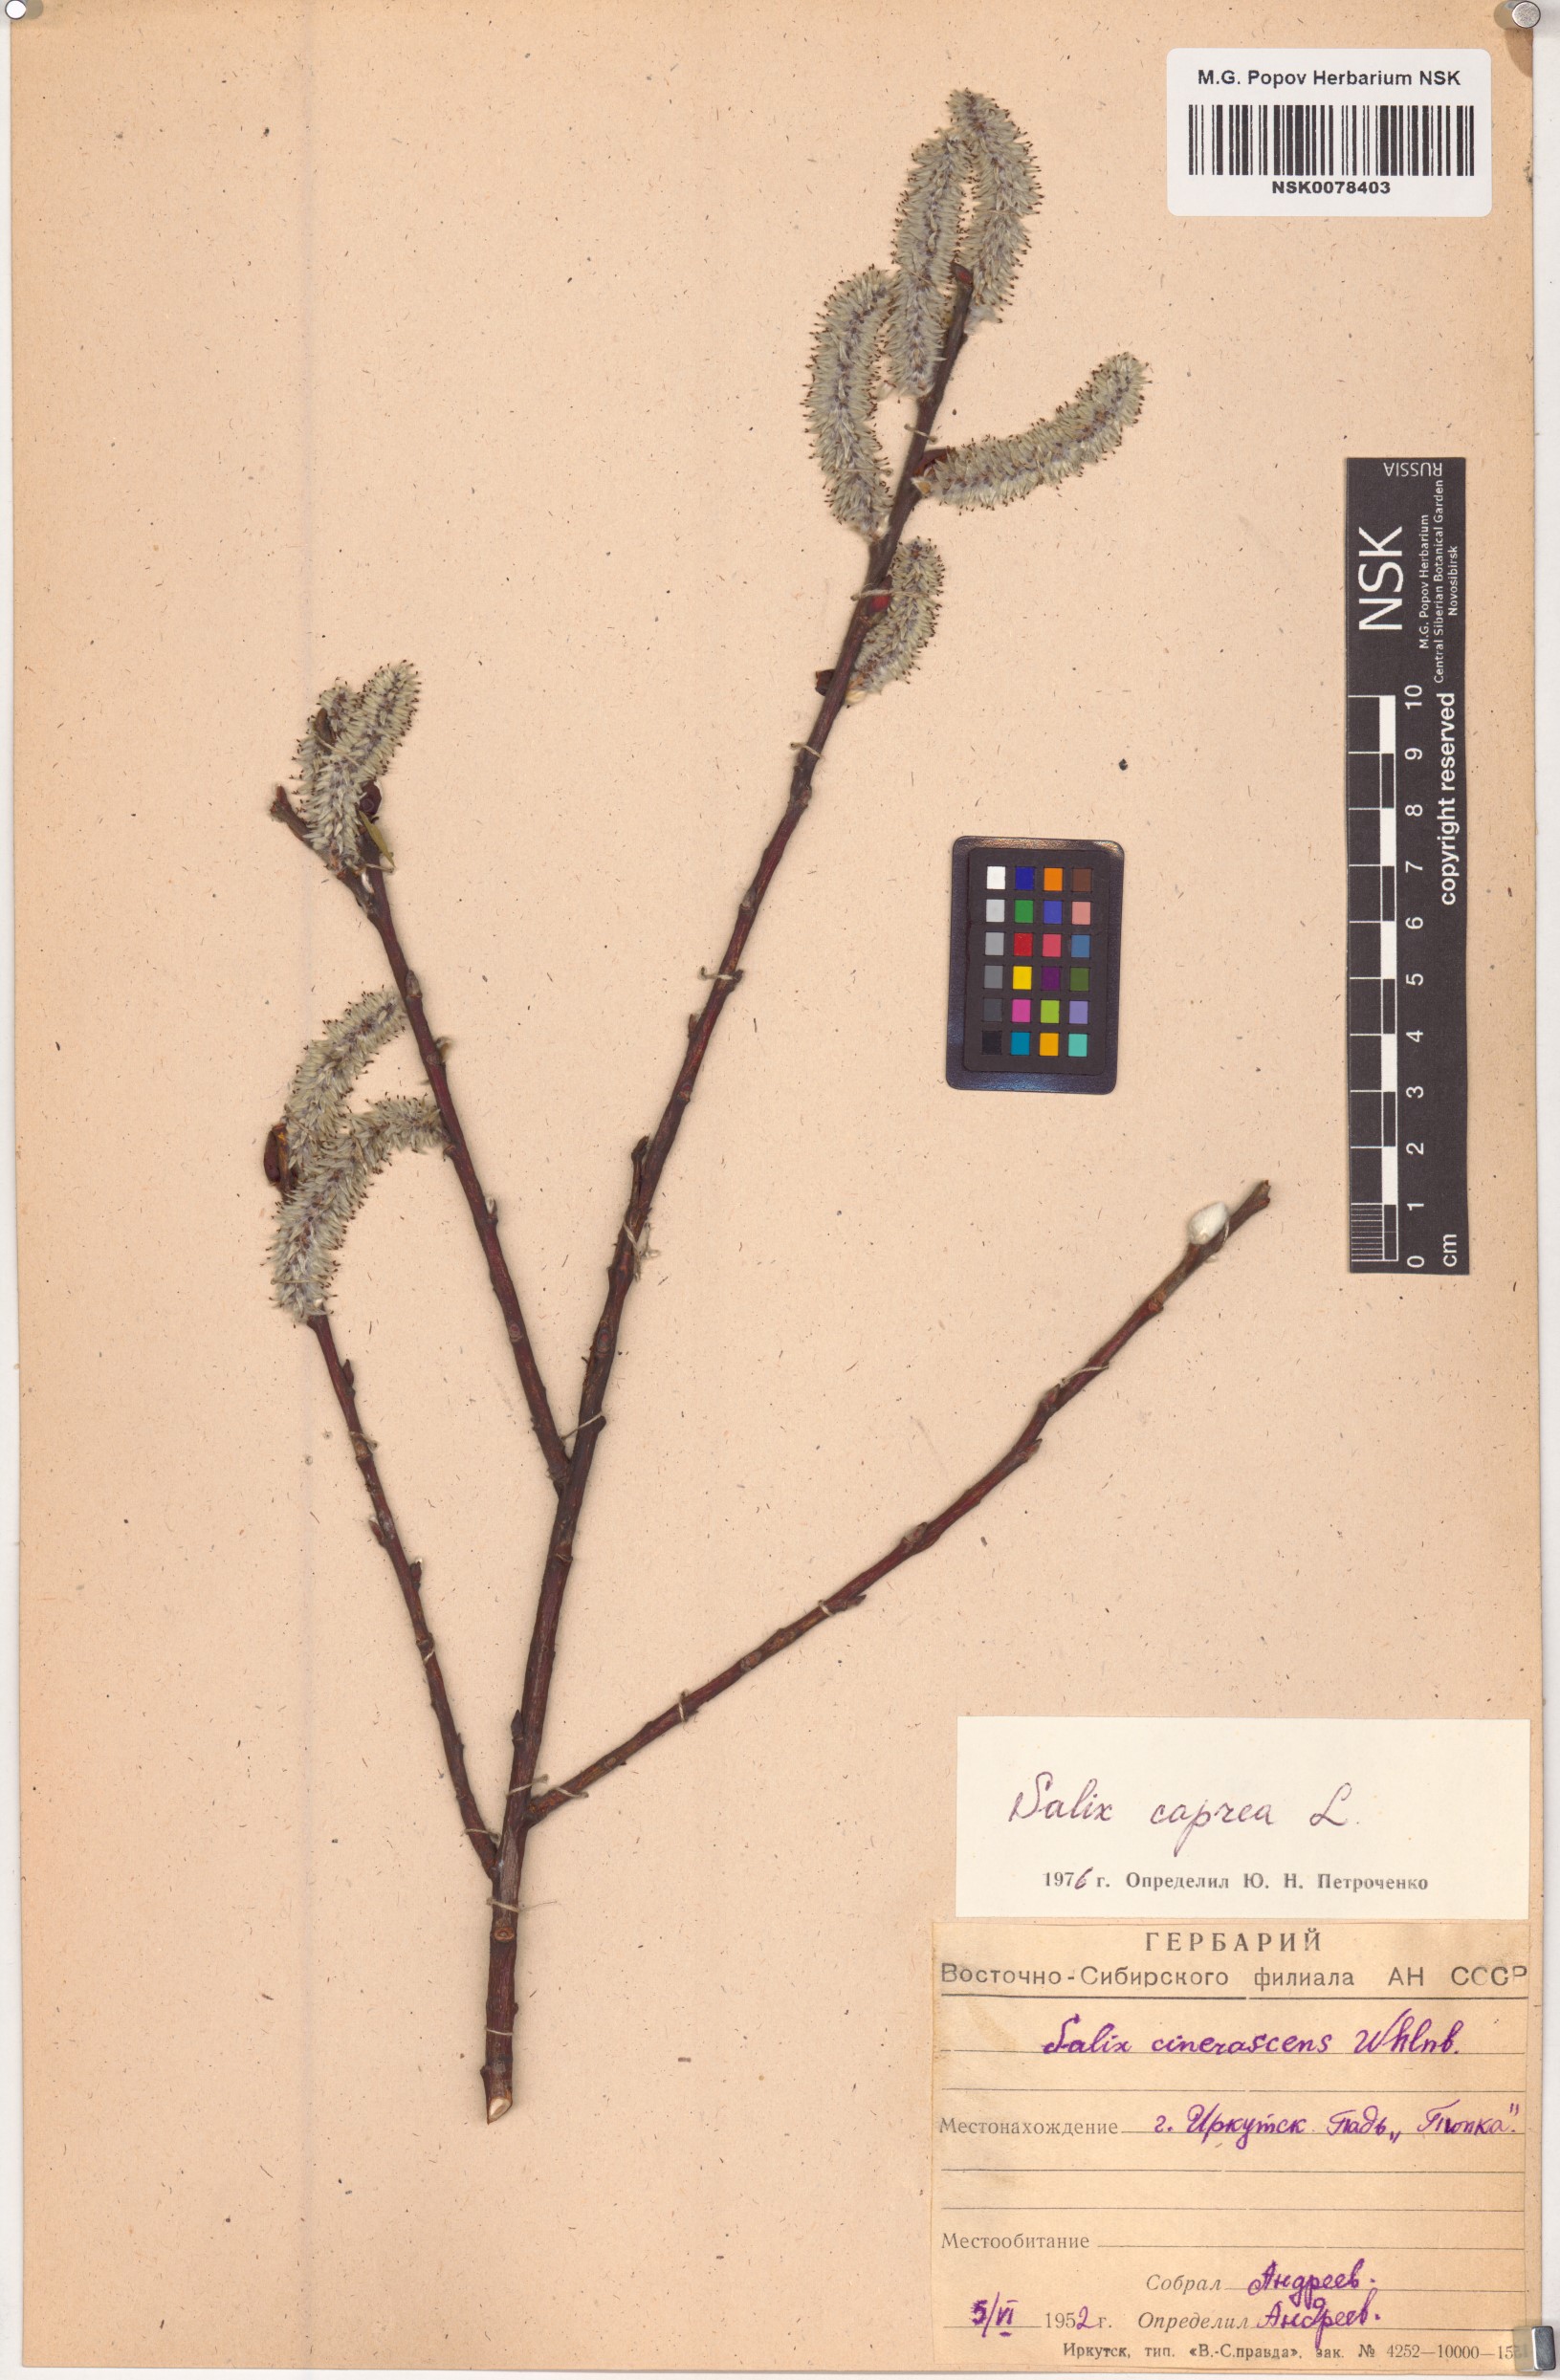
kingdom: Plantae
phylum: Tracheophyta
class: Magnoliopsida
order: Malpighiales
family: Salicaceae
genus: Salix
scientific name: Salix caprea
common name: Goat willow
